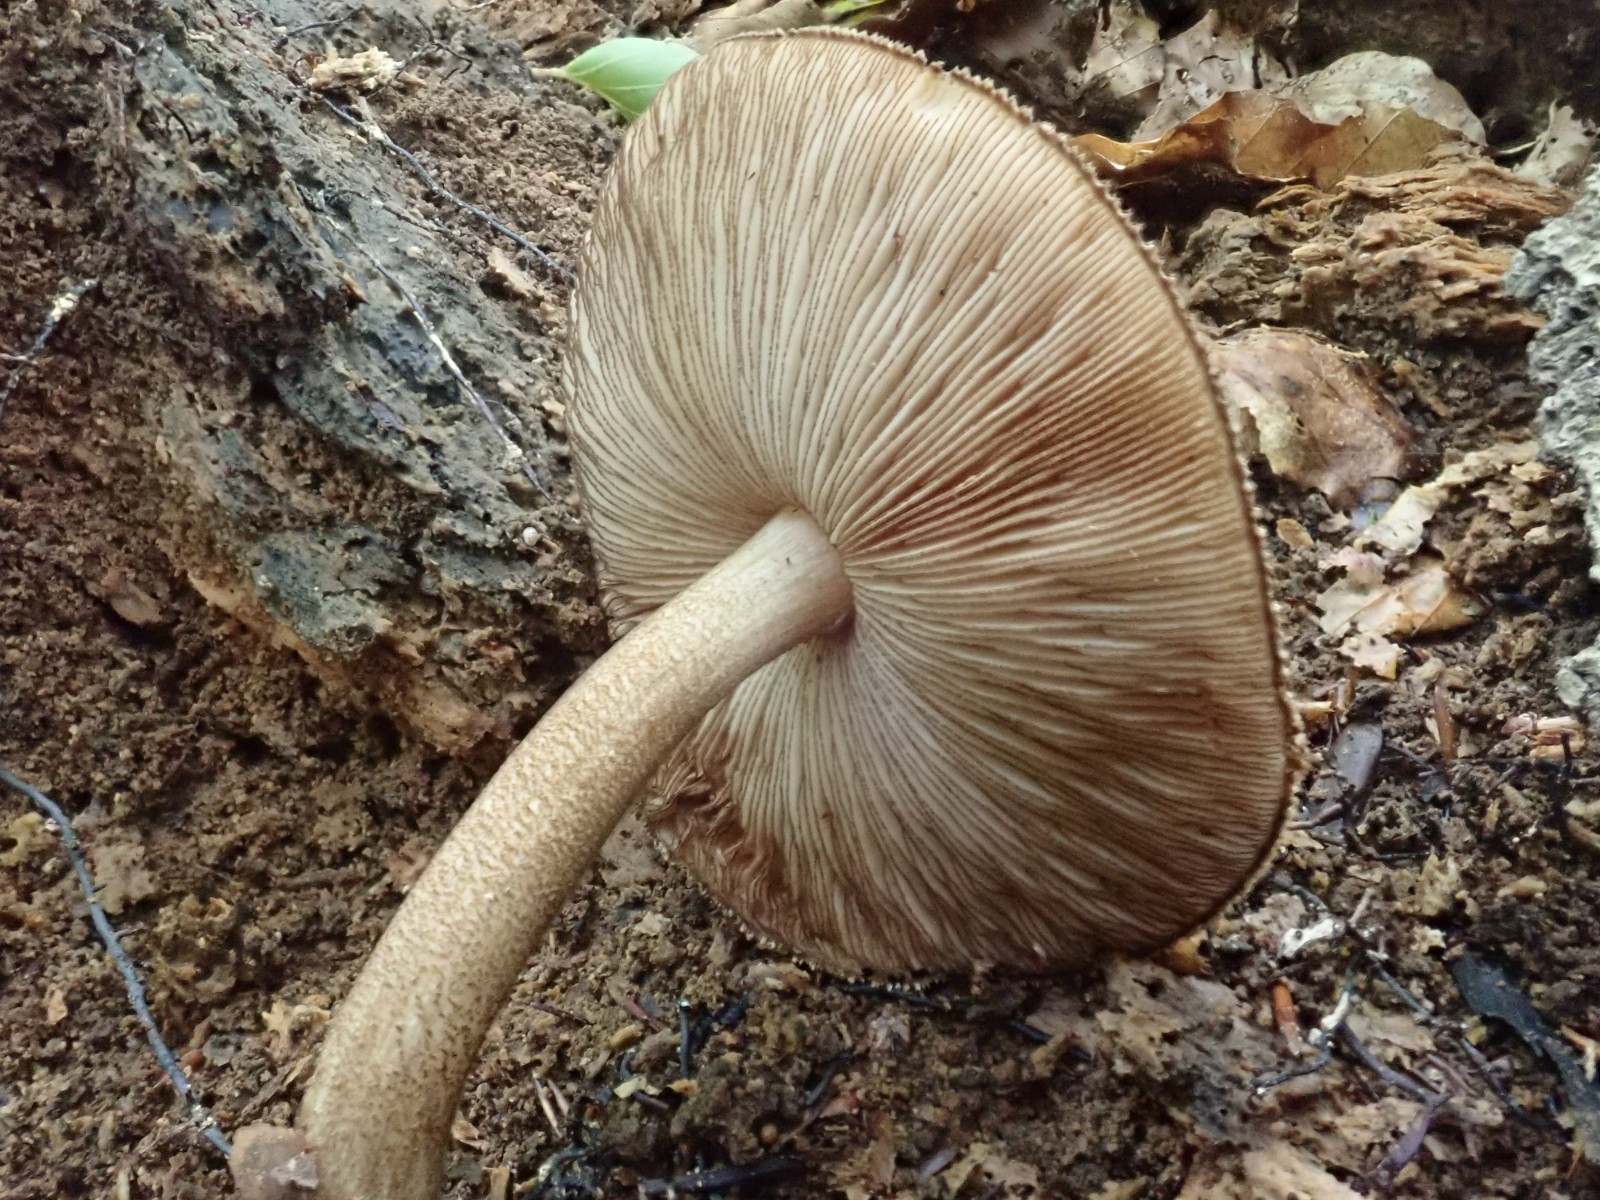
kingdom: Fungi
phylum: Basidiomycota
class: Agaricomycetes
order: Agaricales
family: Pluteaceae
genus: Pluteus
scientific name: Pluteus umbrosus
